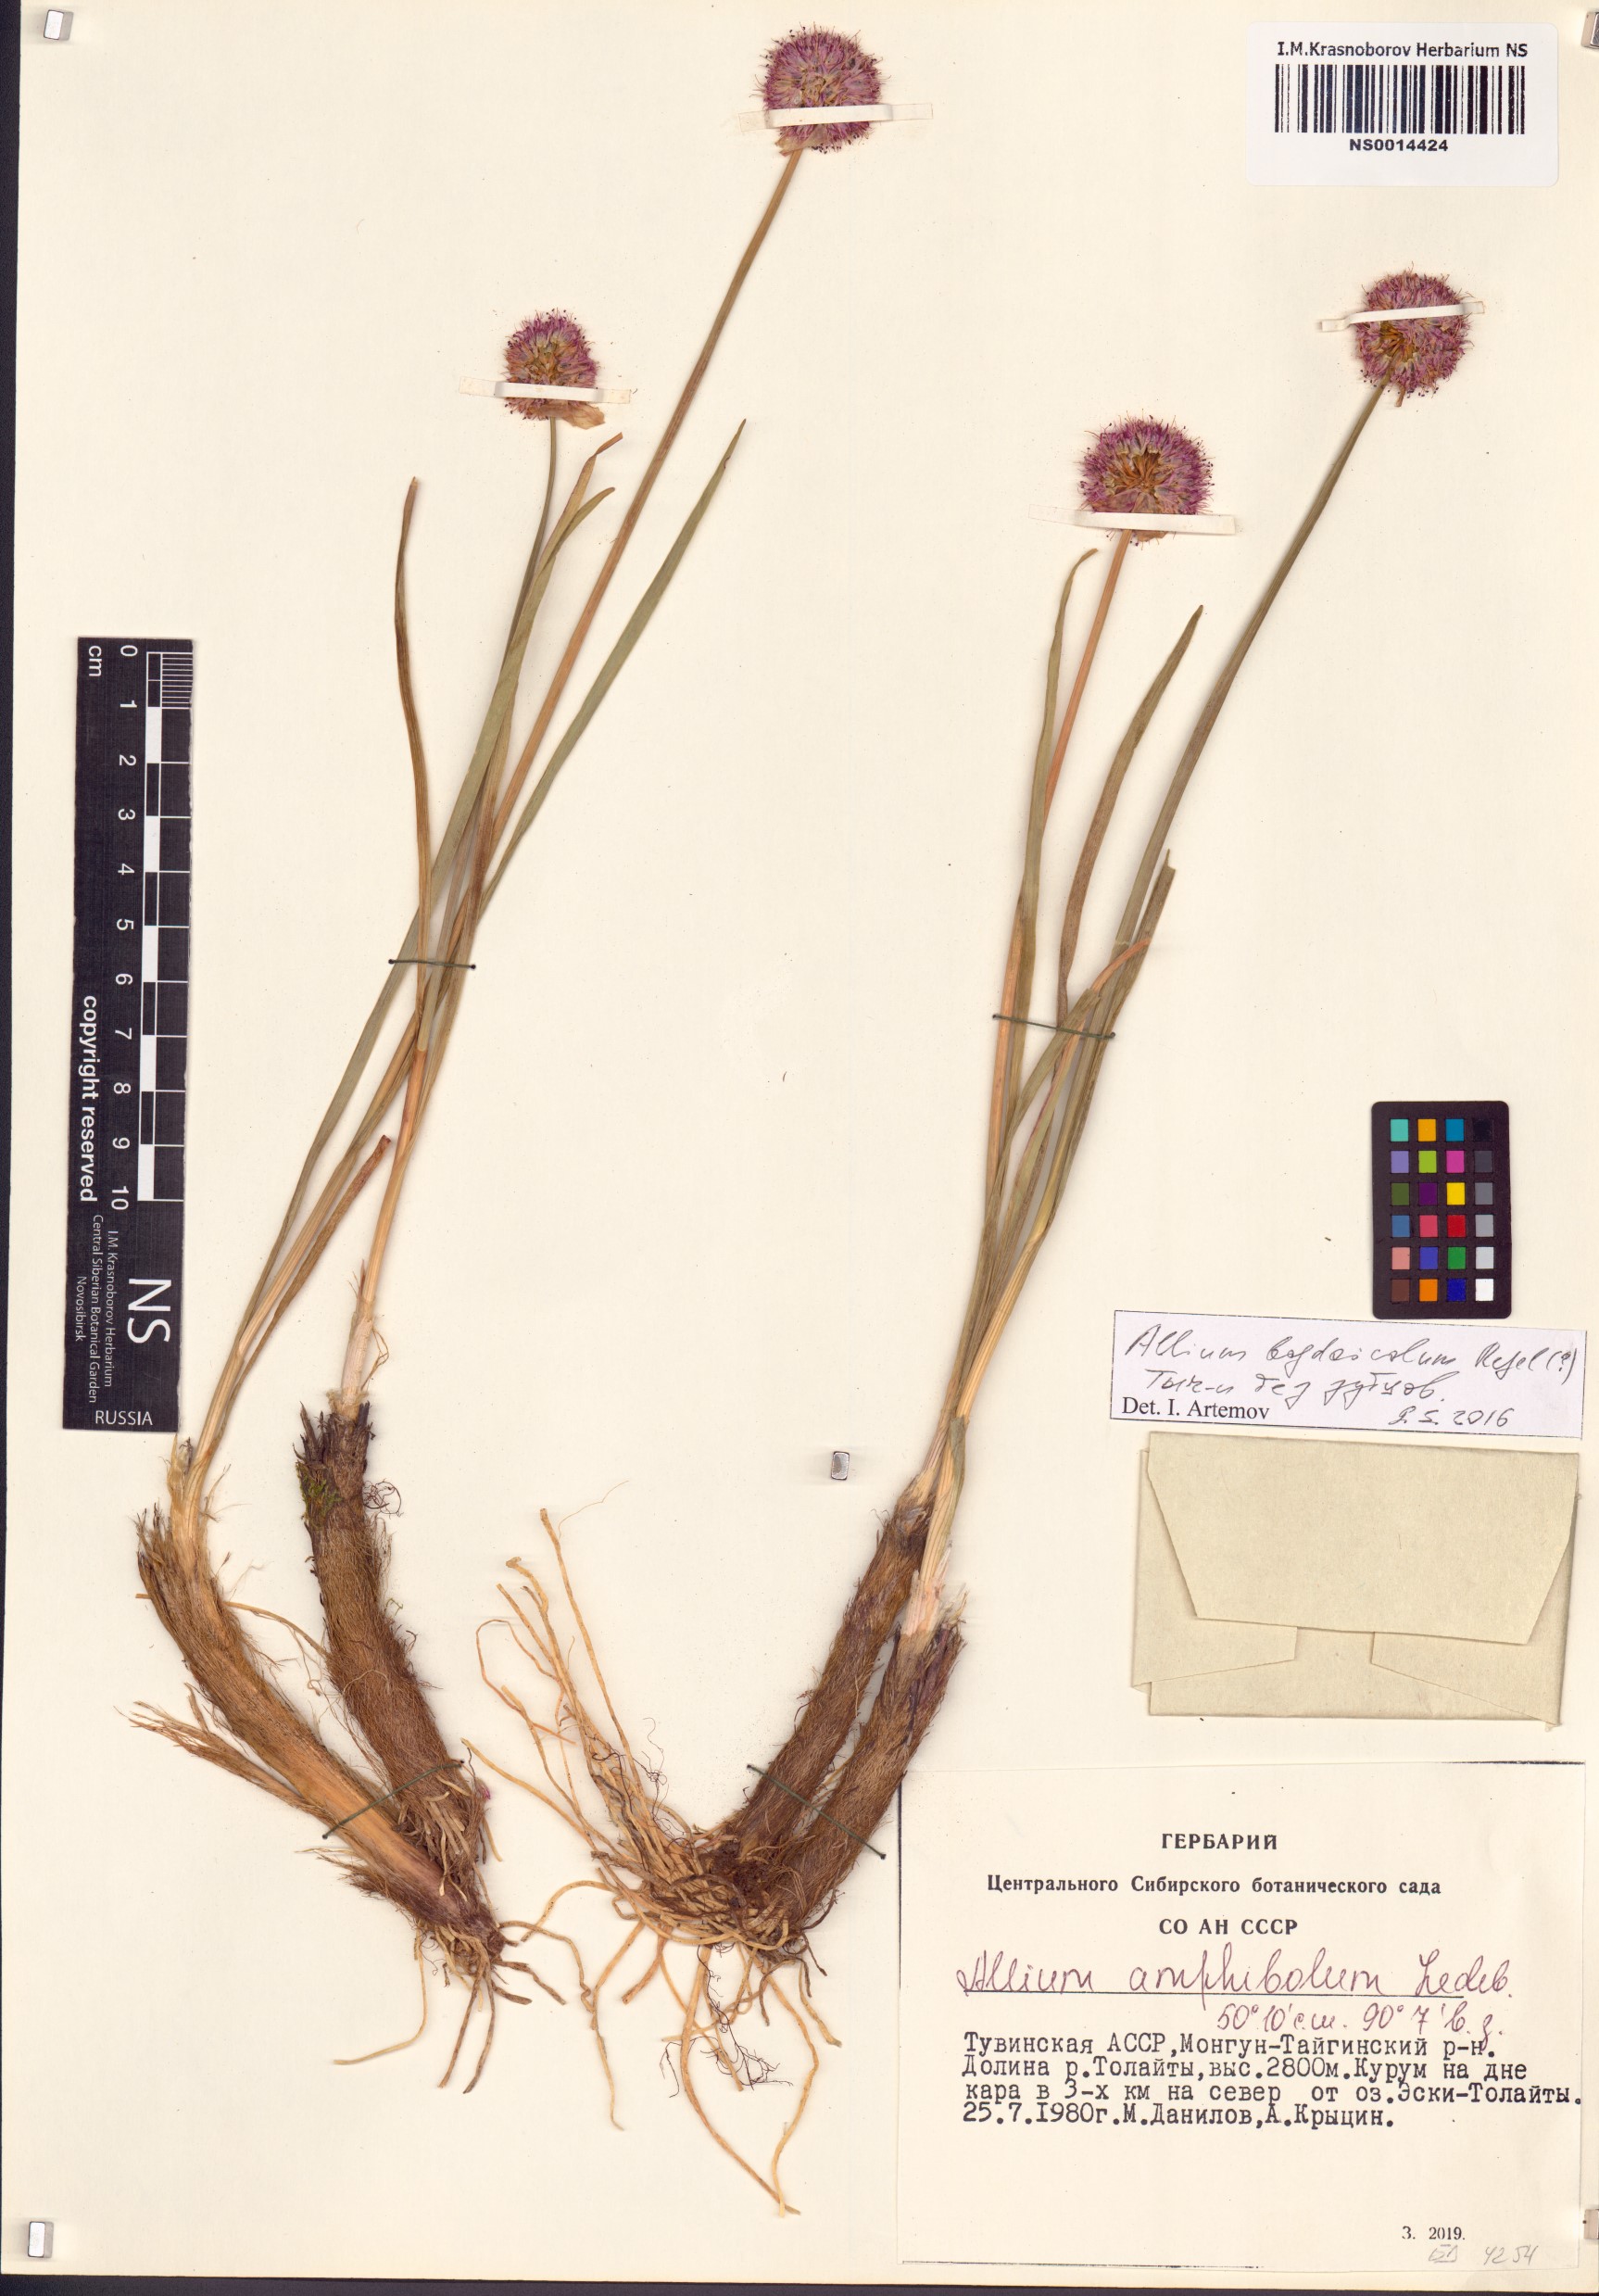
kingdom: Plantae
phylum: Tracheophyta
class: Liliopsida
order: Asparagales
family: Amaryllidaceae
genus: Allium
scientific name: Allium schrenkii
